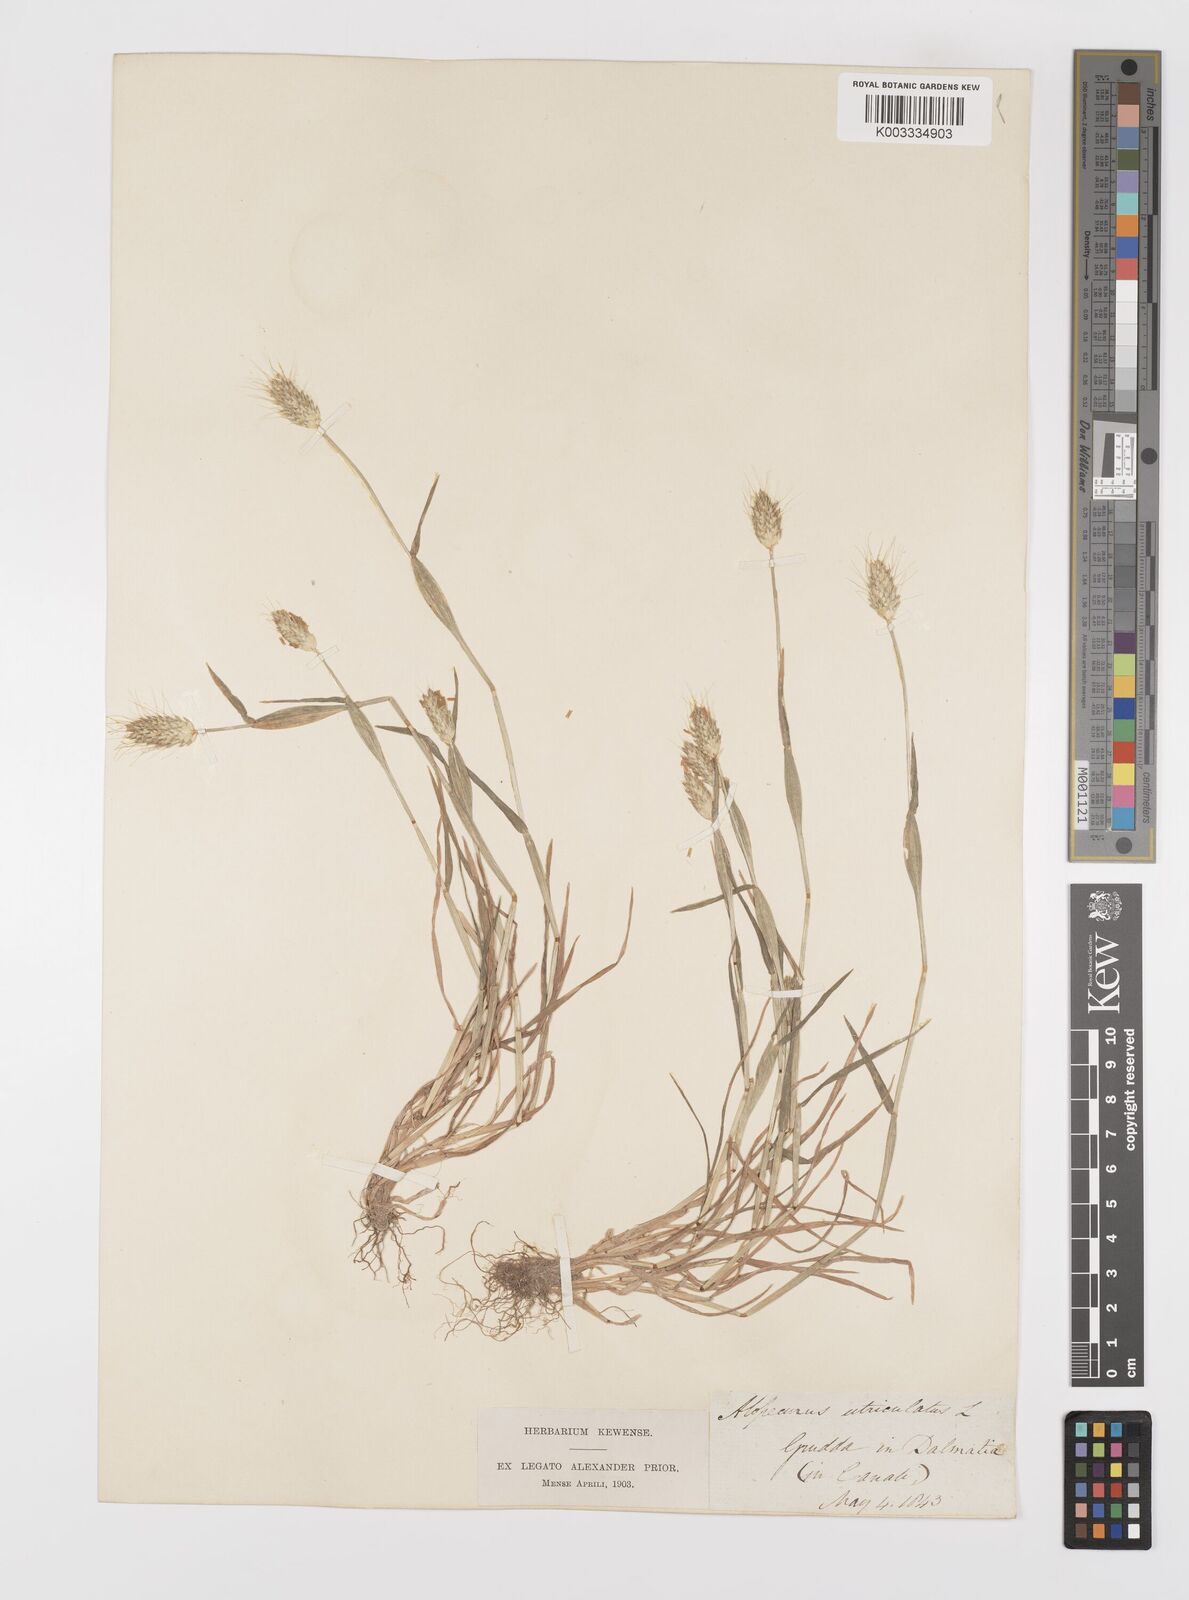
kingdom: Plantae
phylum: Tracheophyta
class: Liliopsida
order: Poales
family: Poaceae
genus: Alopecurus
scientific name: Alopecurus rendlei
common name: Rendle's meadow foxtail
